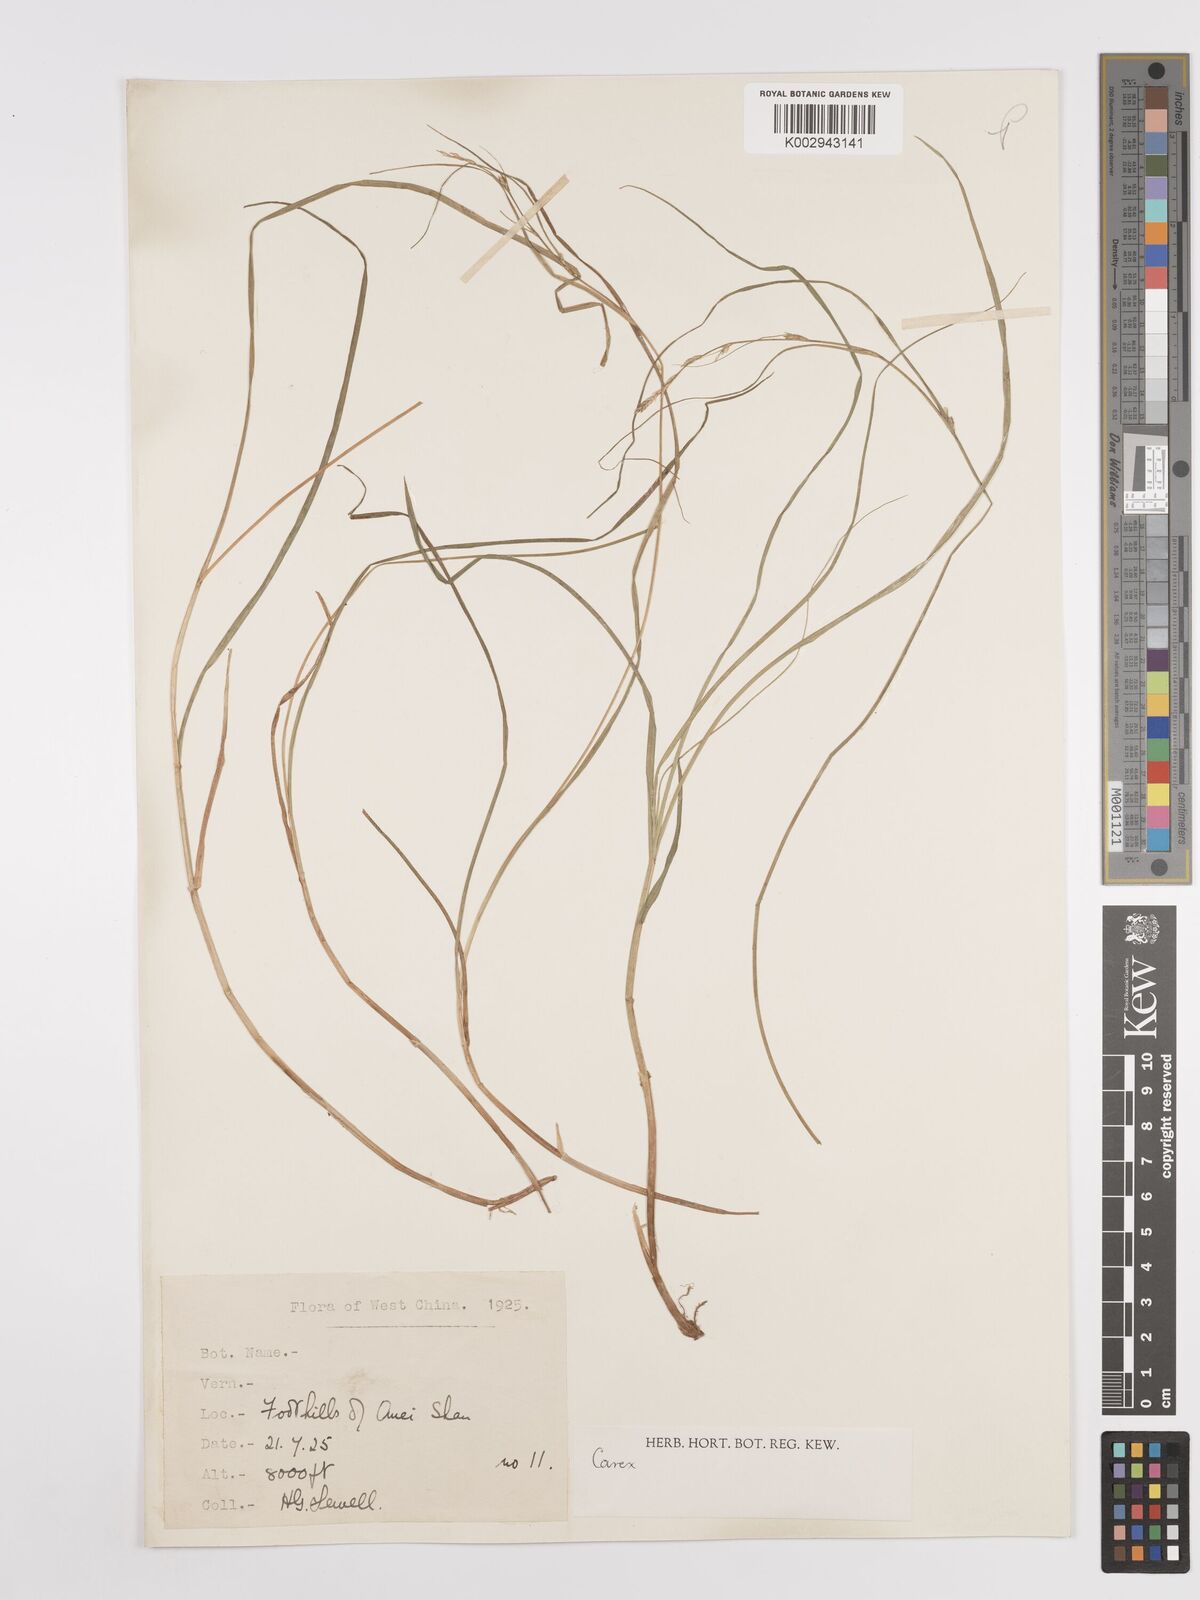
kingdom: Plantae
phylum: Tracheophyta
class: Liliopsida
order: Poales
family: Cyperaceae
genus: Carex
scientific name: Carex
